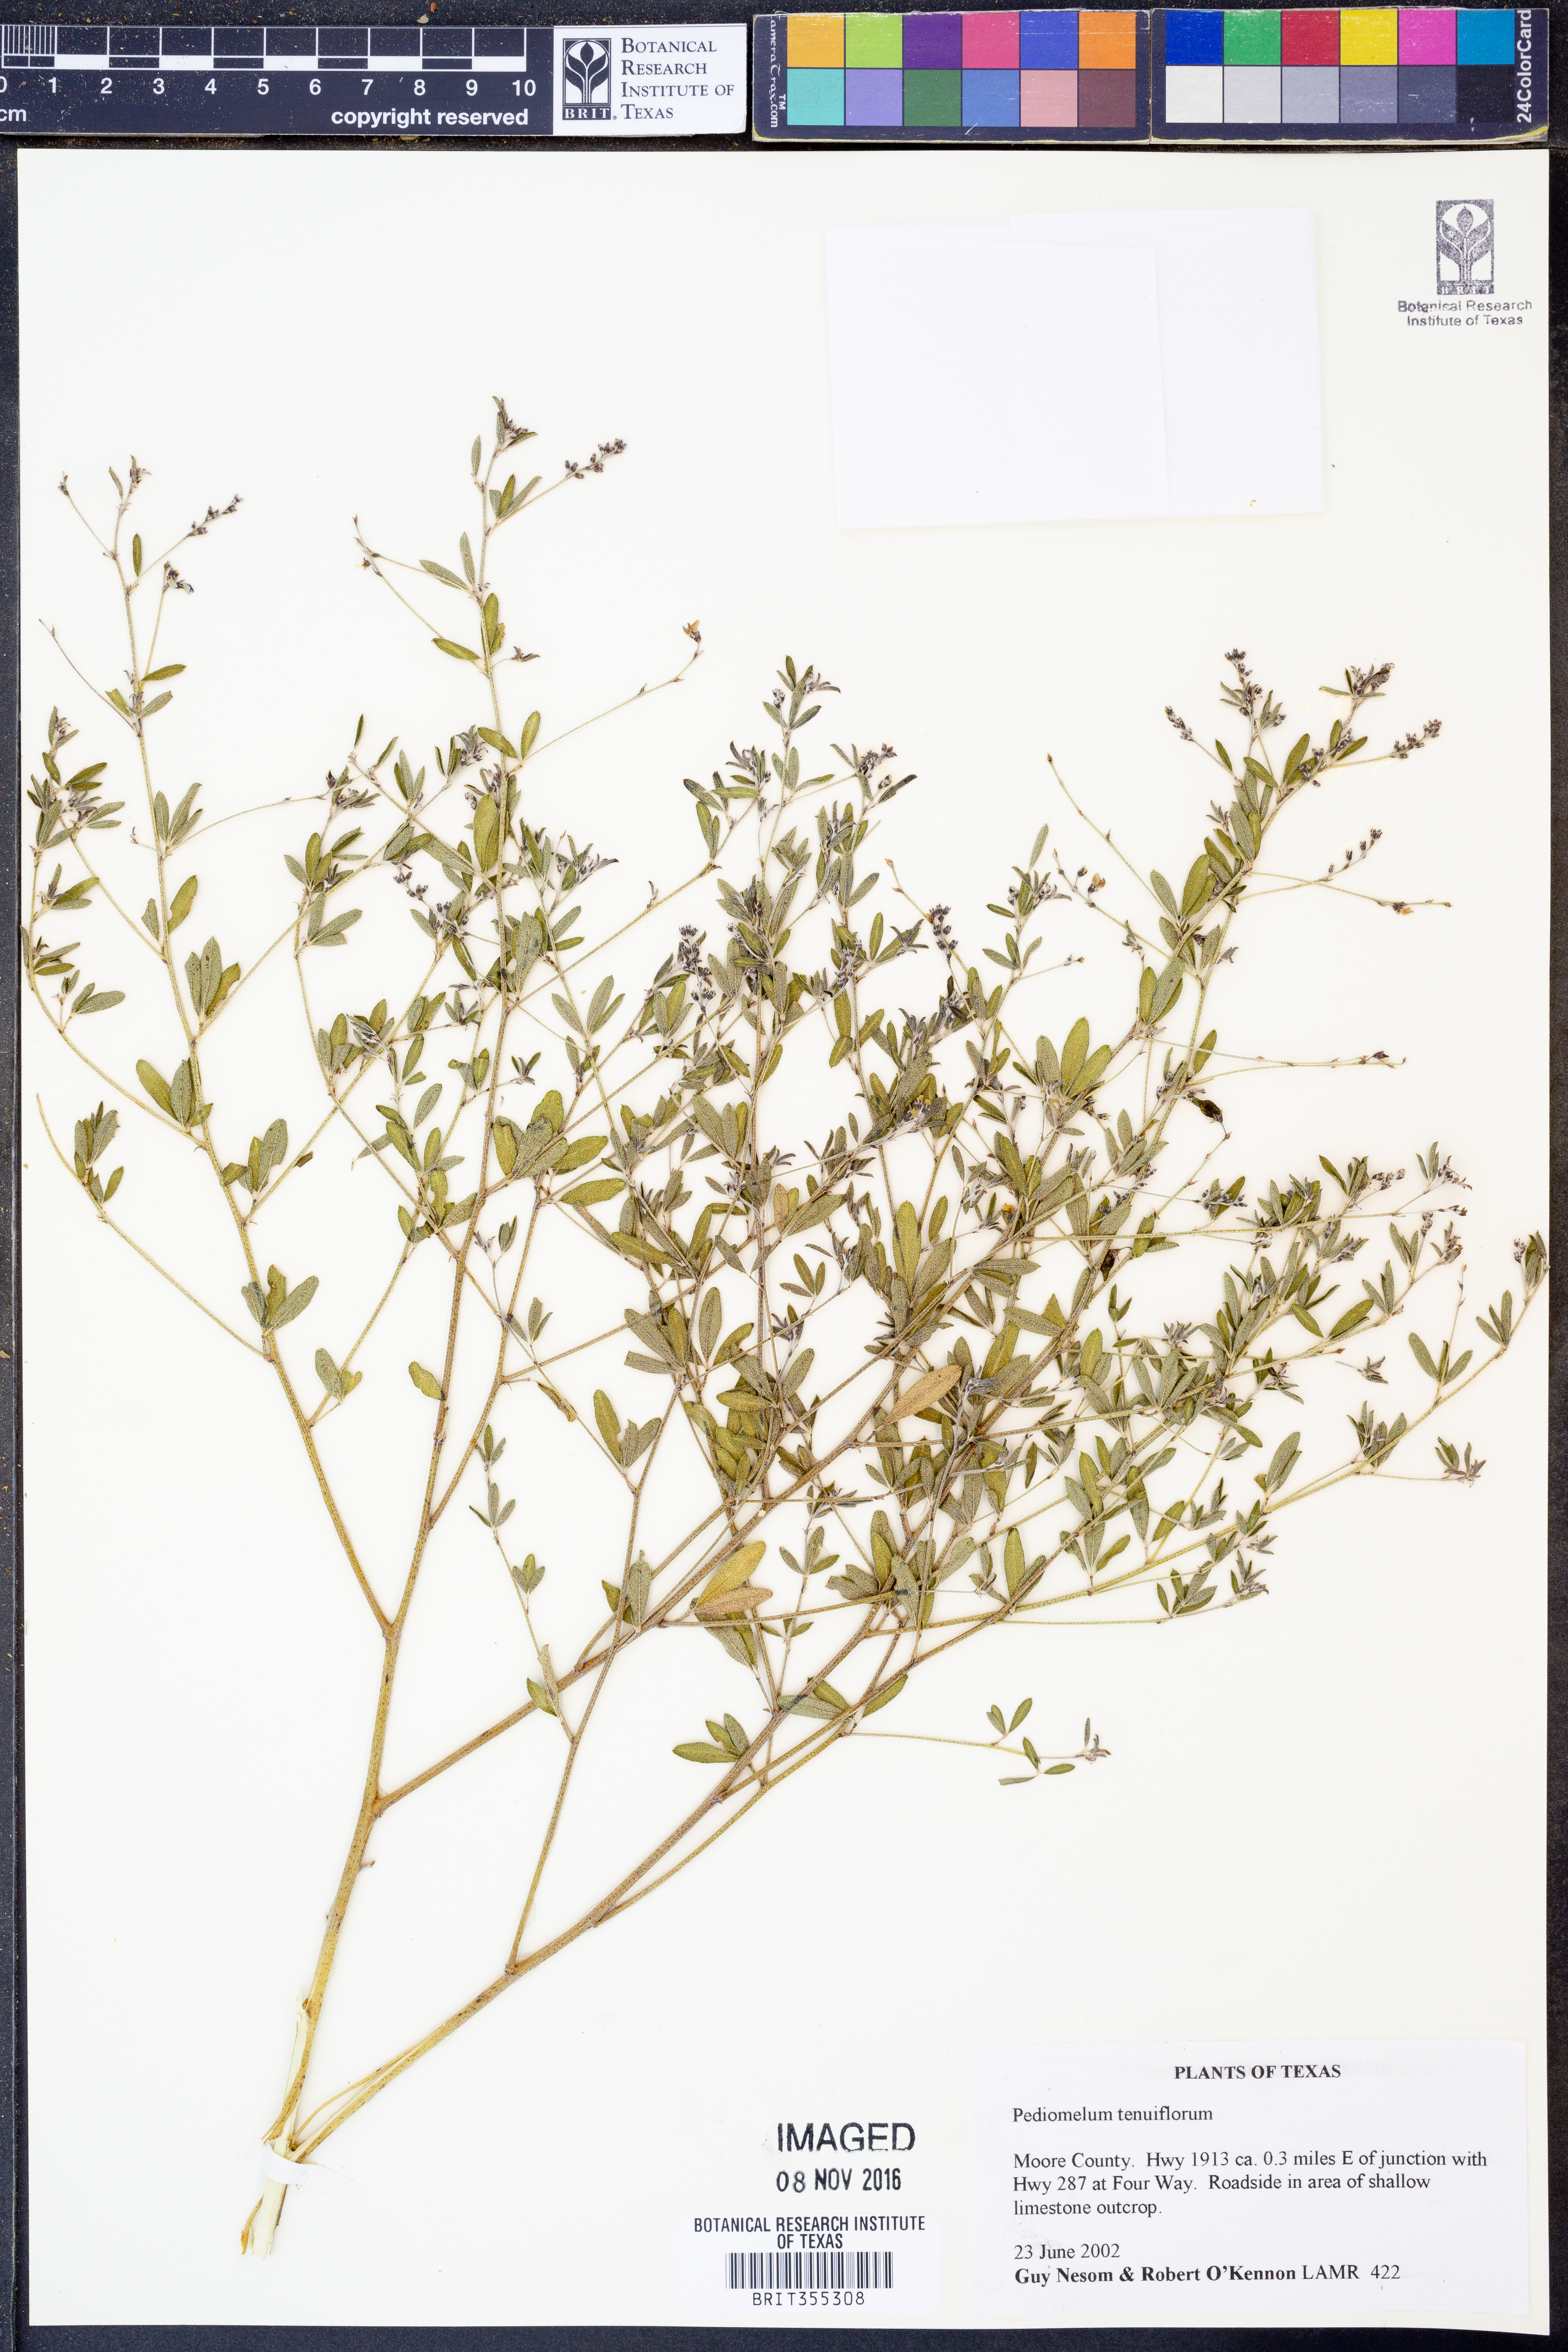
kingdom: Plantae
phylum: Tracheophyta
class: Magnoliopsida
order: Fabales
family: Fabaceae
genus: Pediomelum
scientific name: Pediomelum tenuiflorum
